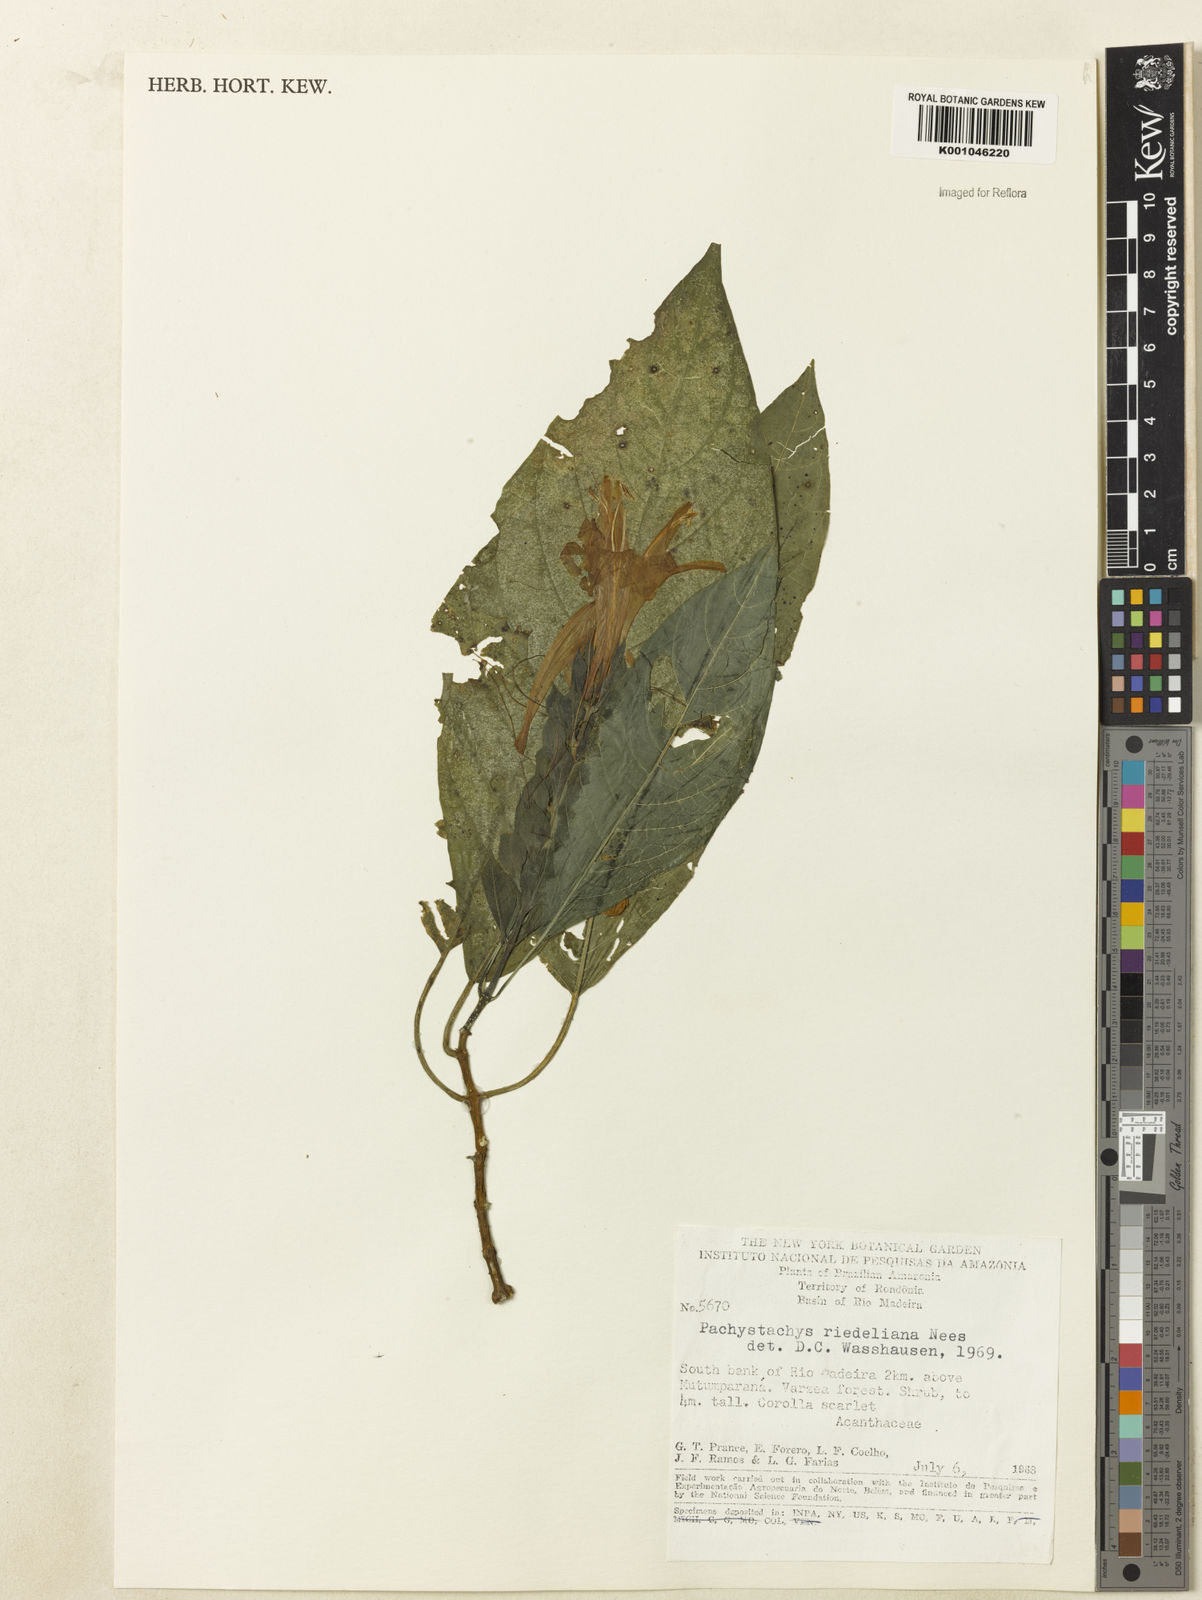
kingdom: Plantae
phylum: Tracheophyta
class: Magnoliopsida
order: Lamiales
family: Acanthaceae
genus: Pachystachys
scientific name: Pachystachys spicata
